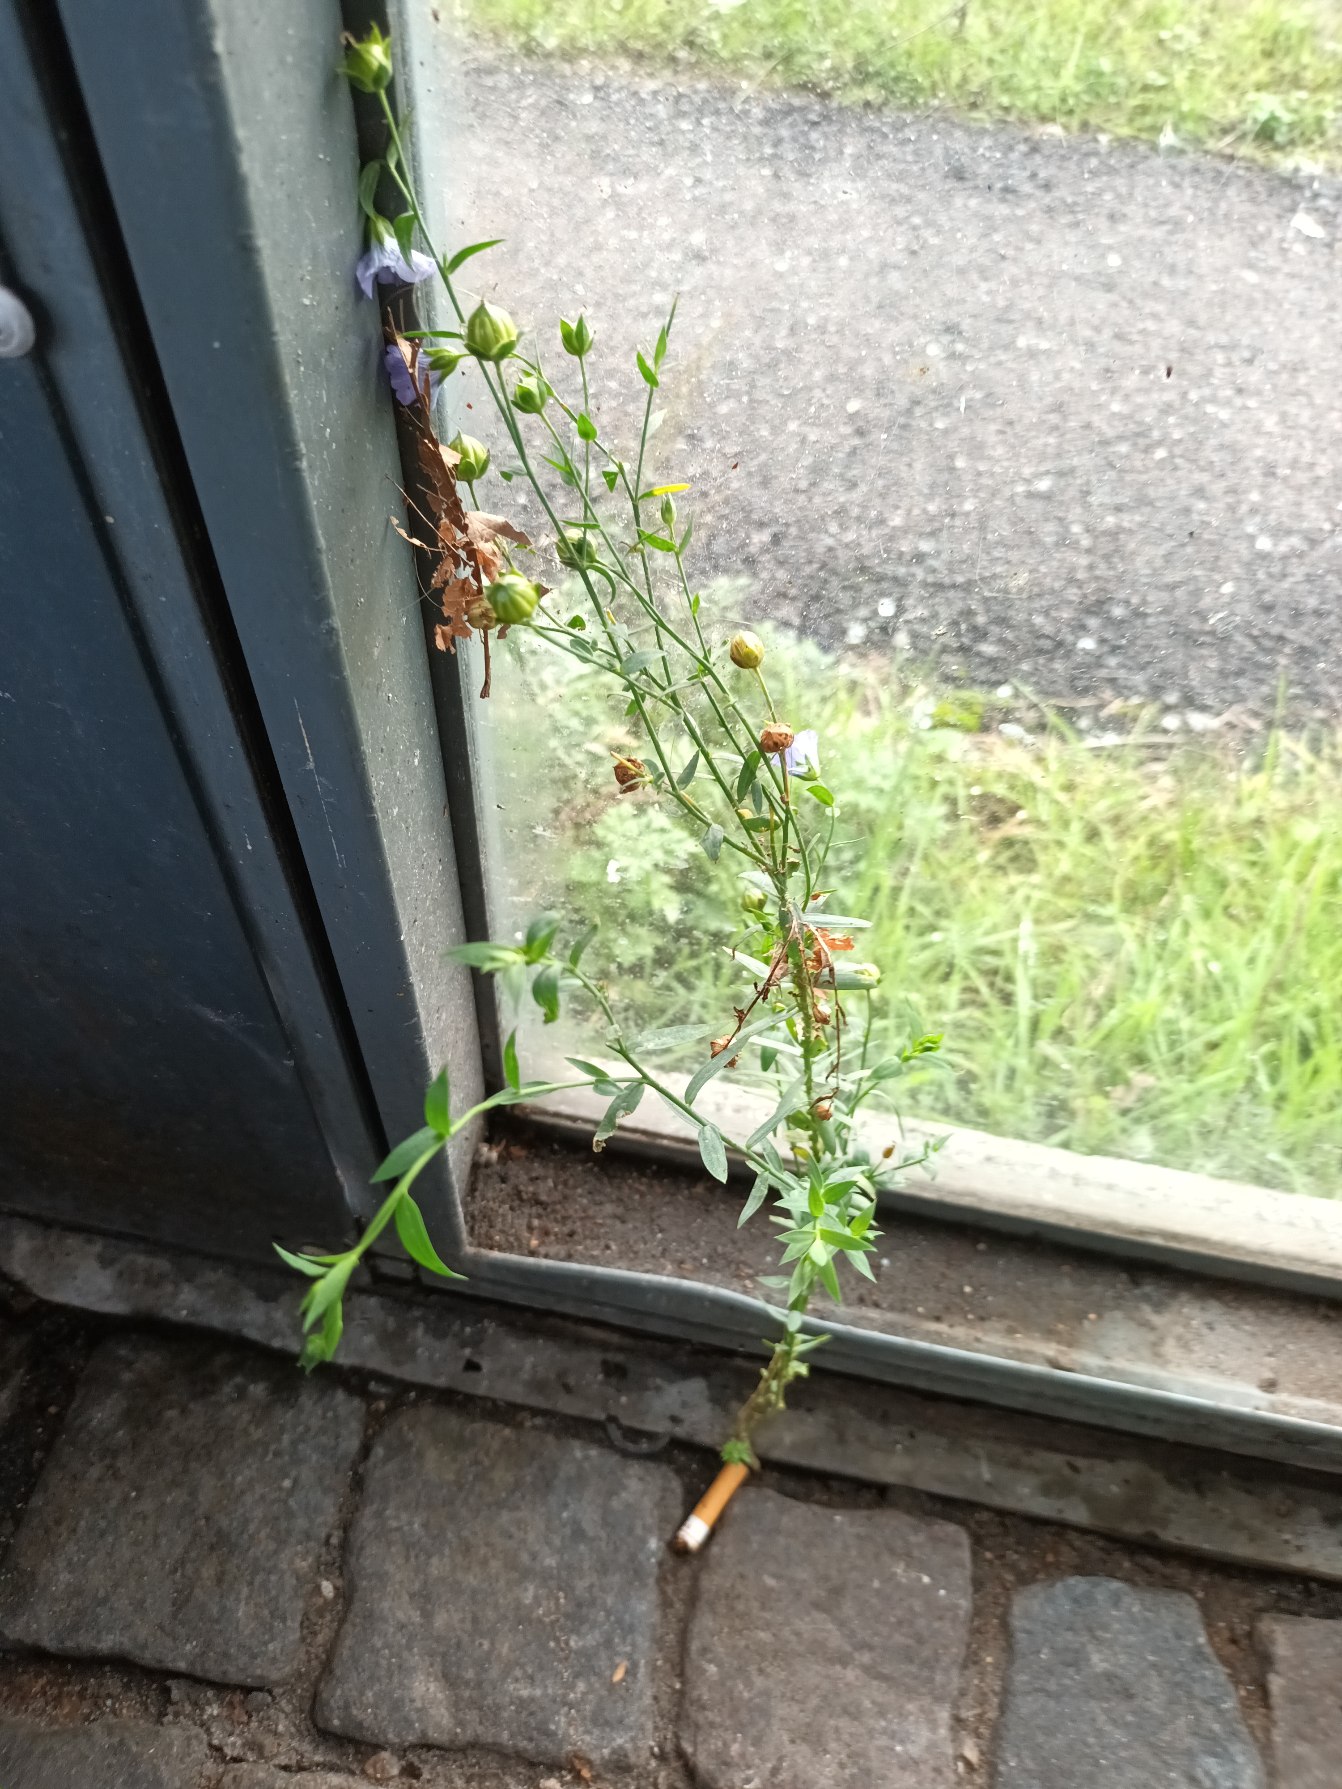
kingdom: Plantae
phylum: Tracheophyta
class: Magnoliopsida
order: Malpighiales
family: Linaceae
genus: Linum
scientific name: Linum usitatissimum
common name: Almindelig hør
